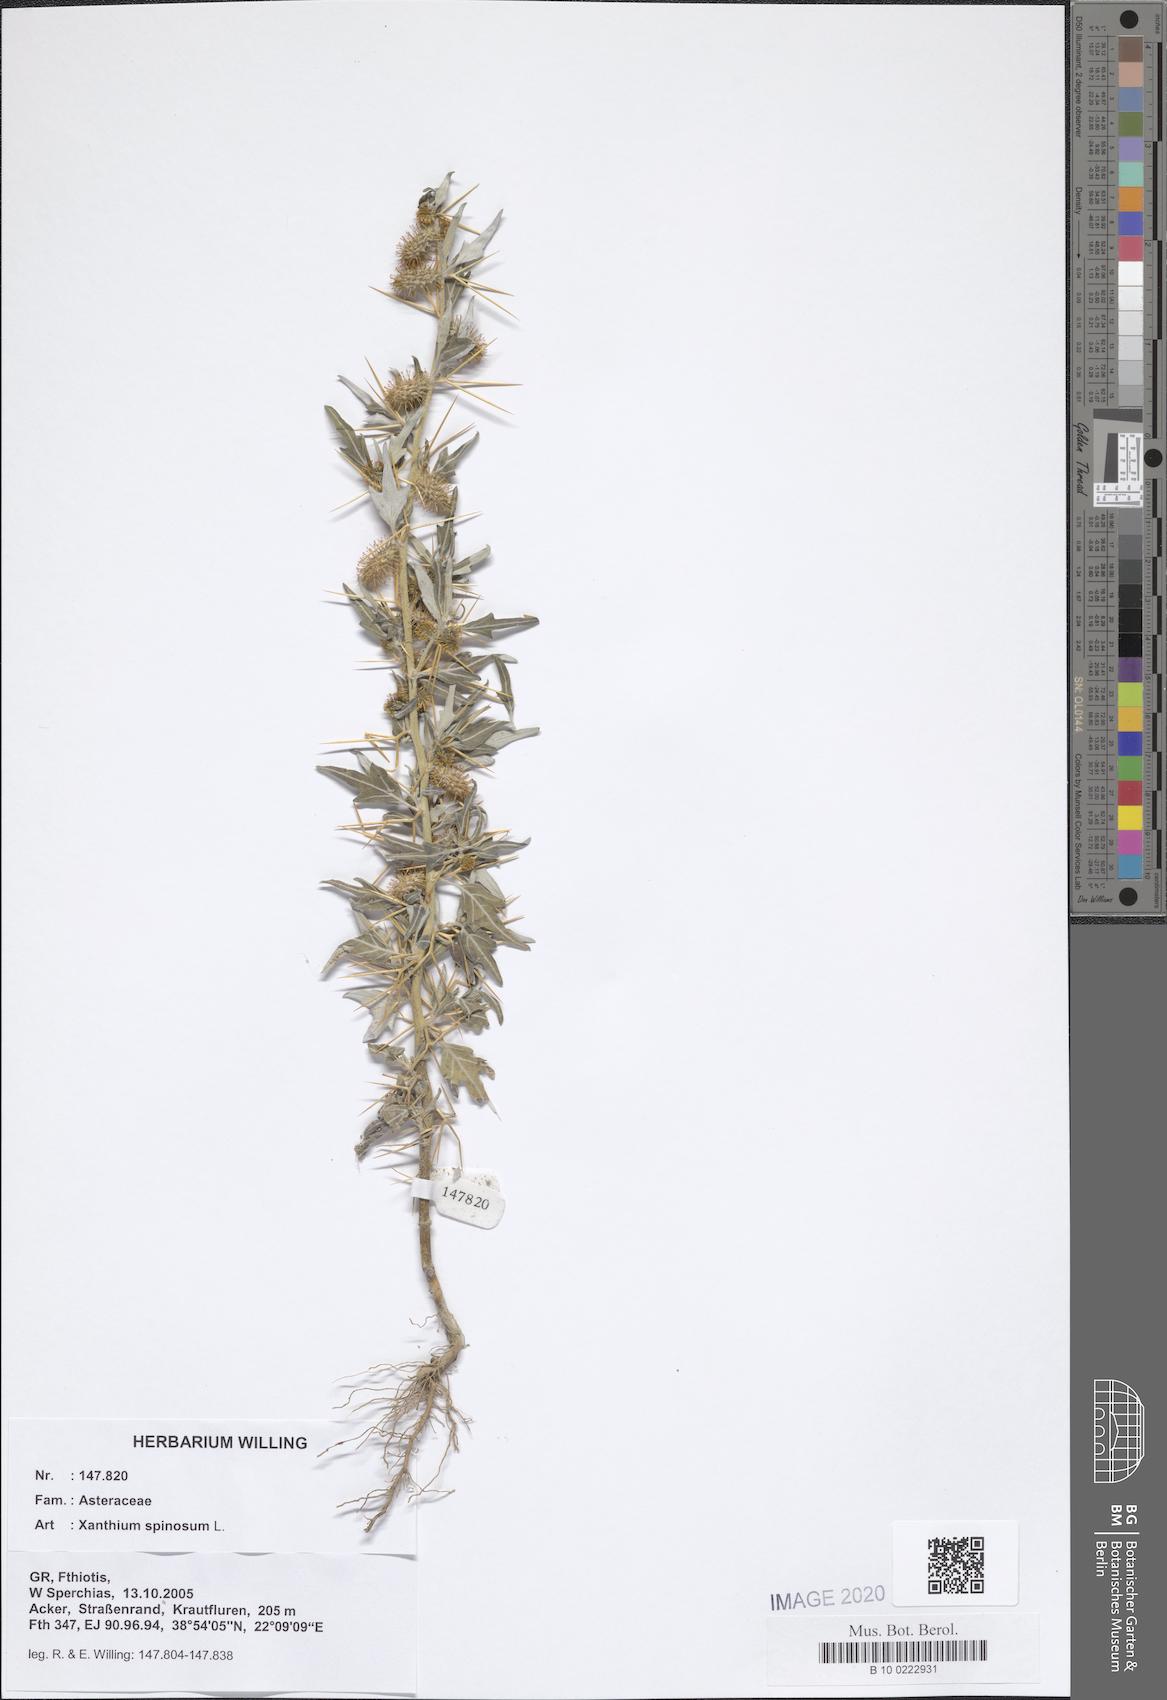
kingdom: Plantae
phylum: Tracheophyta
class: Magnoliopsida
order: Asterales
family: Asteraceae
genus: Xanthium
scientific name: Xanthium spinosum
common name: Spiny cocklebur
